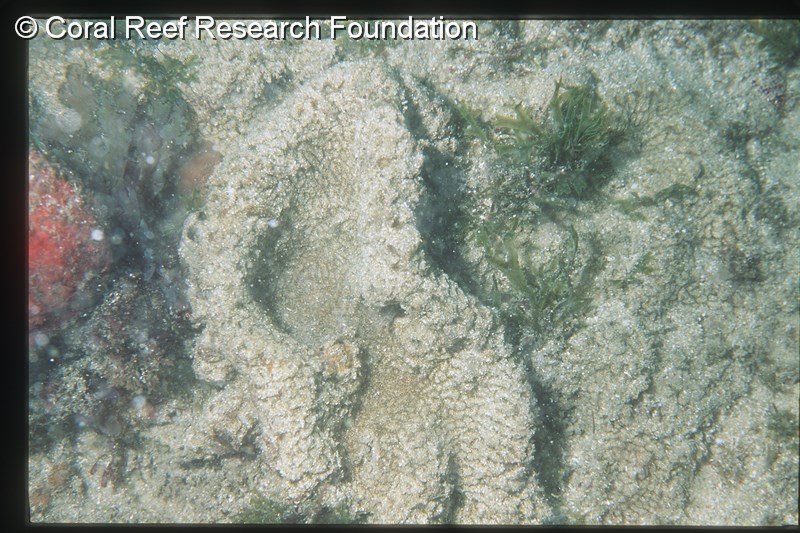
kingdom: Animalia
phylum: Chordata
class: Ascidiacea
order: Aplousobranchia
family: Polyclinidae
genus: Aplidium
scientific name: Aplidium pantherinum
